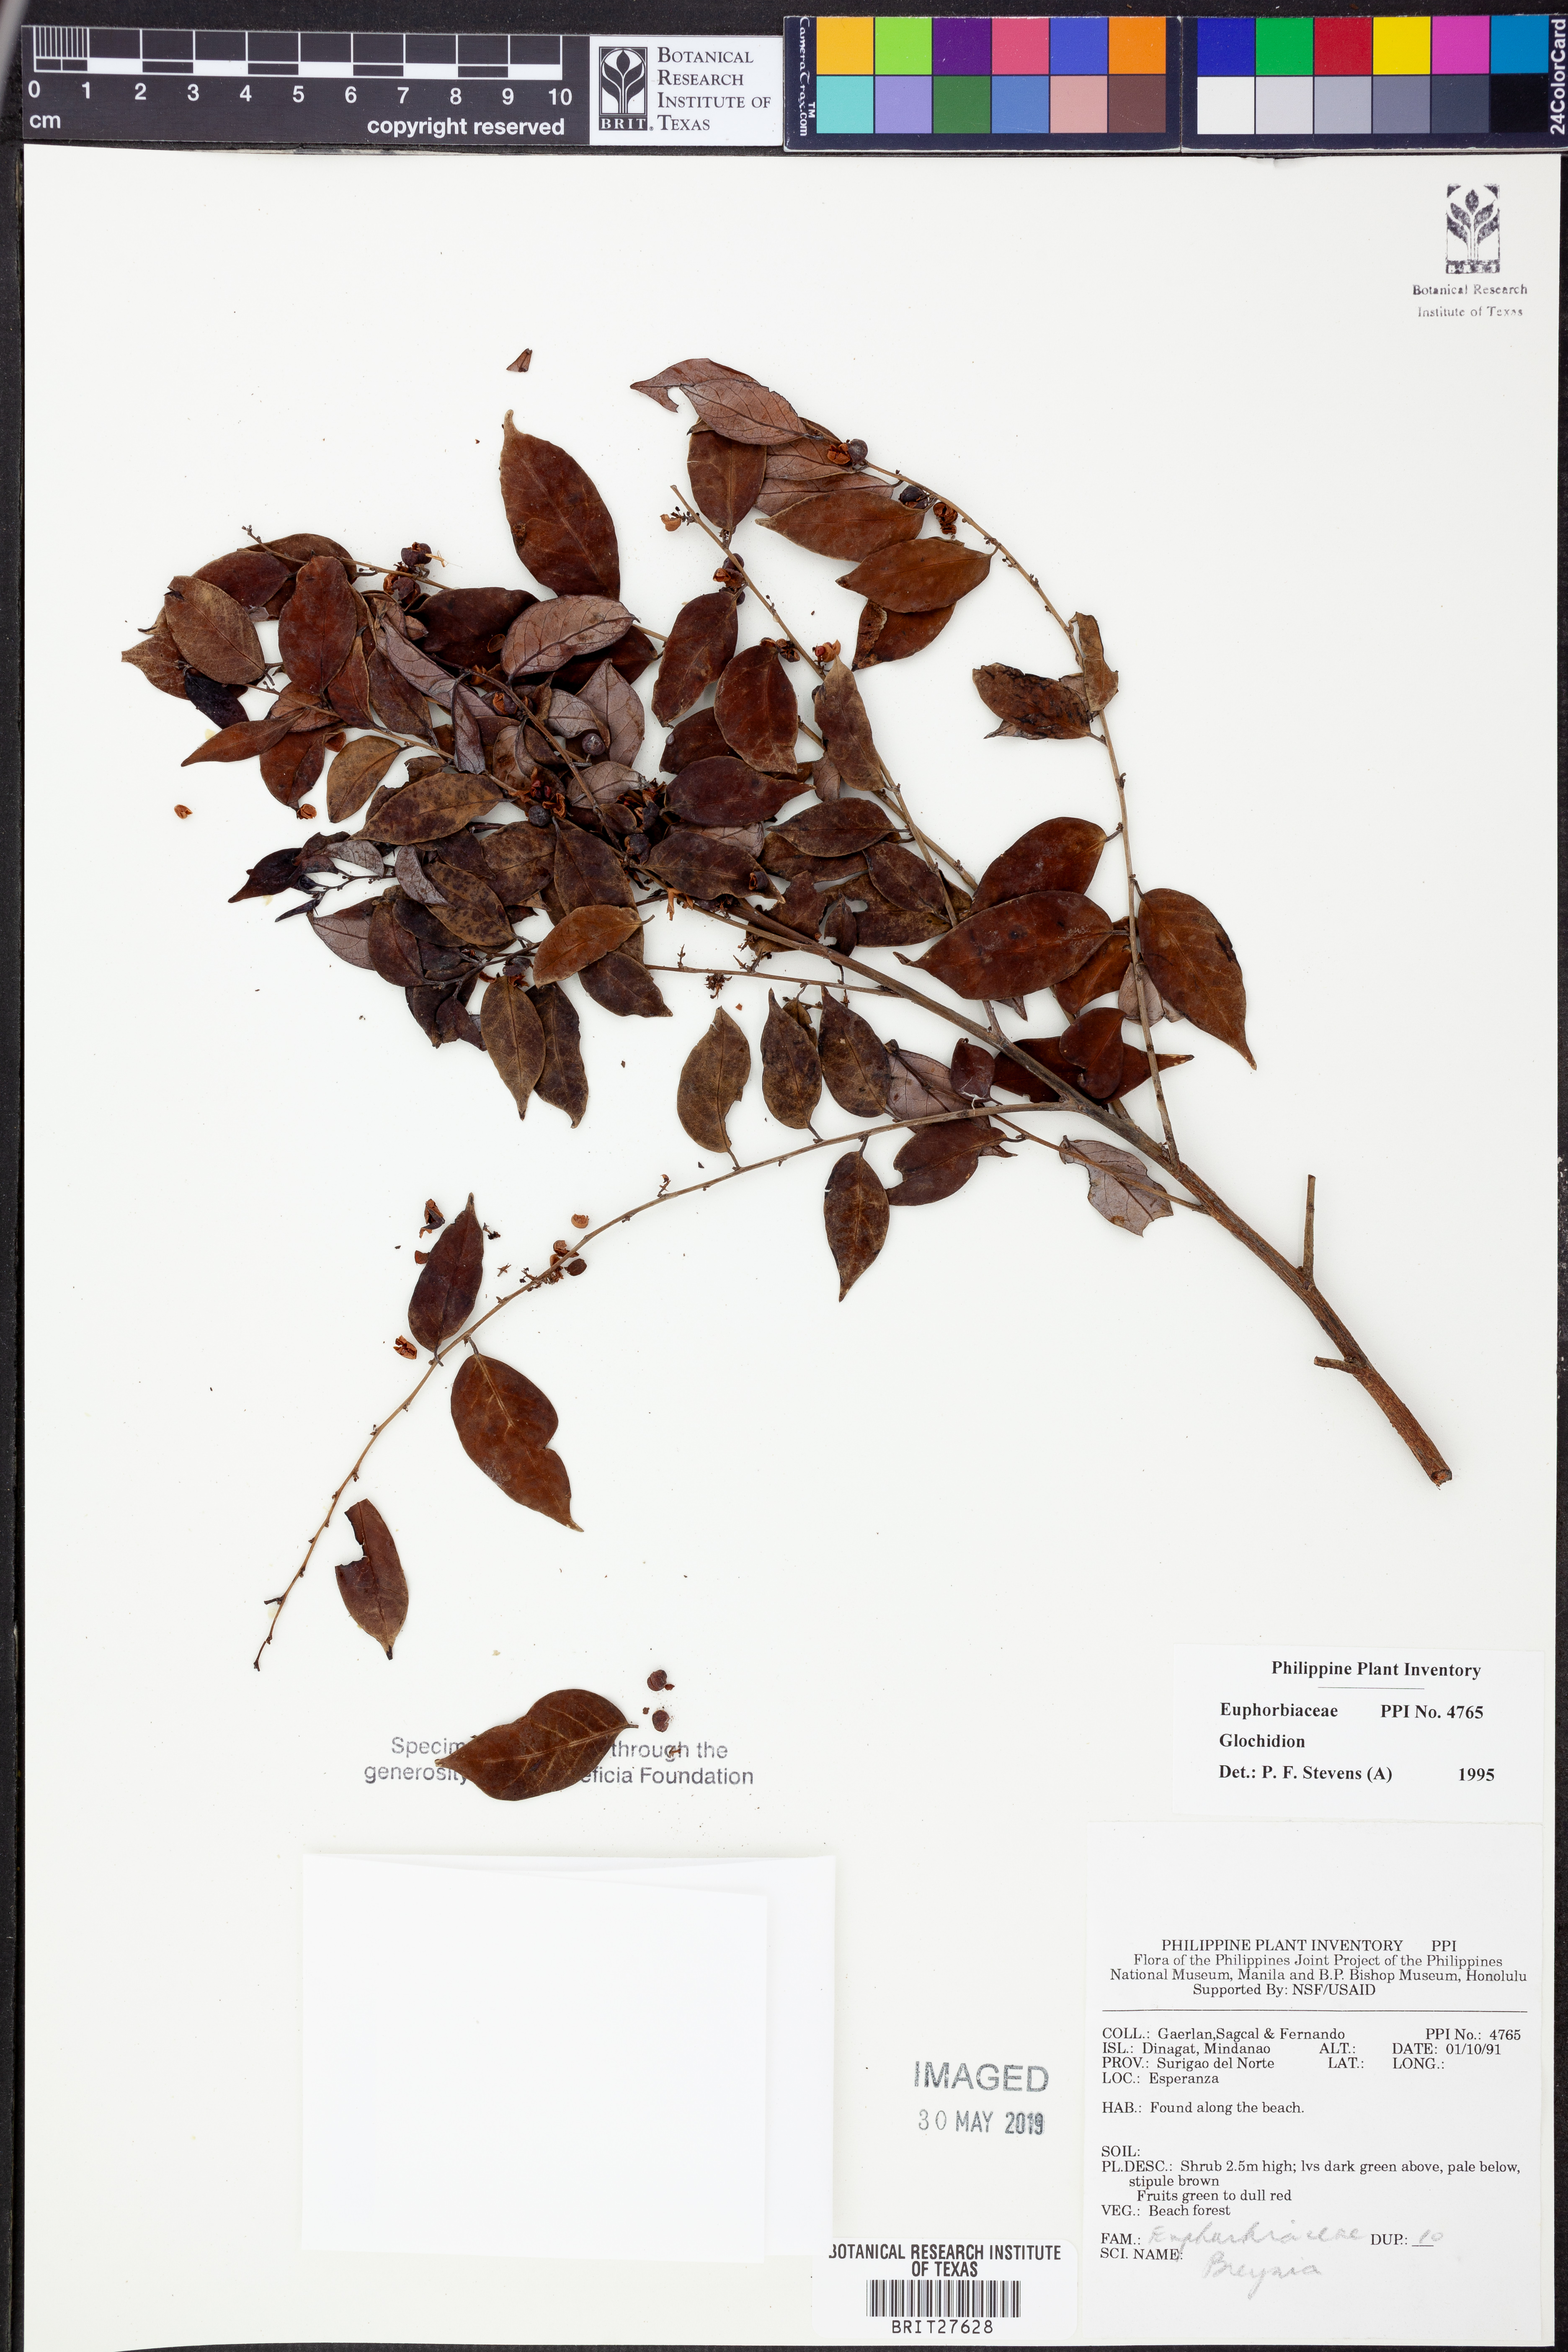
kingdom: Plantae
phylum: Tracheophyta
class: Magnoliopsida
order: Malpighiales
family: Phyllanthaceae
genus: Glochidion
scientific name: Glochidion
